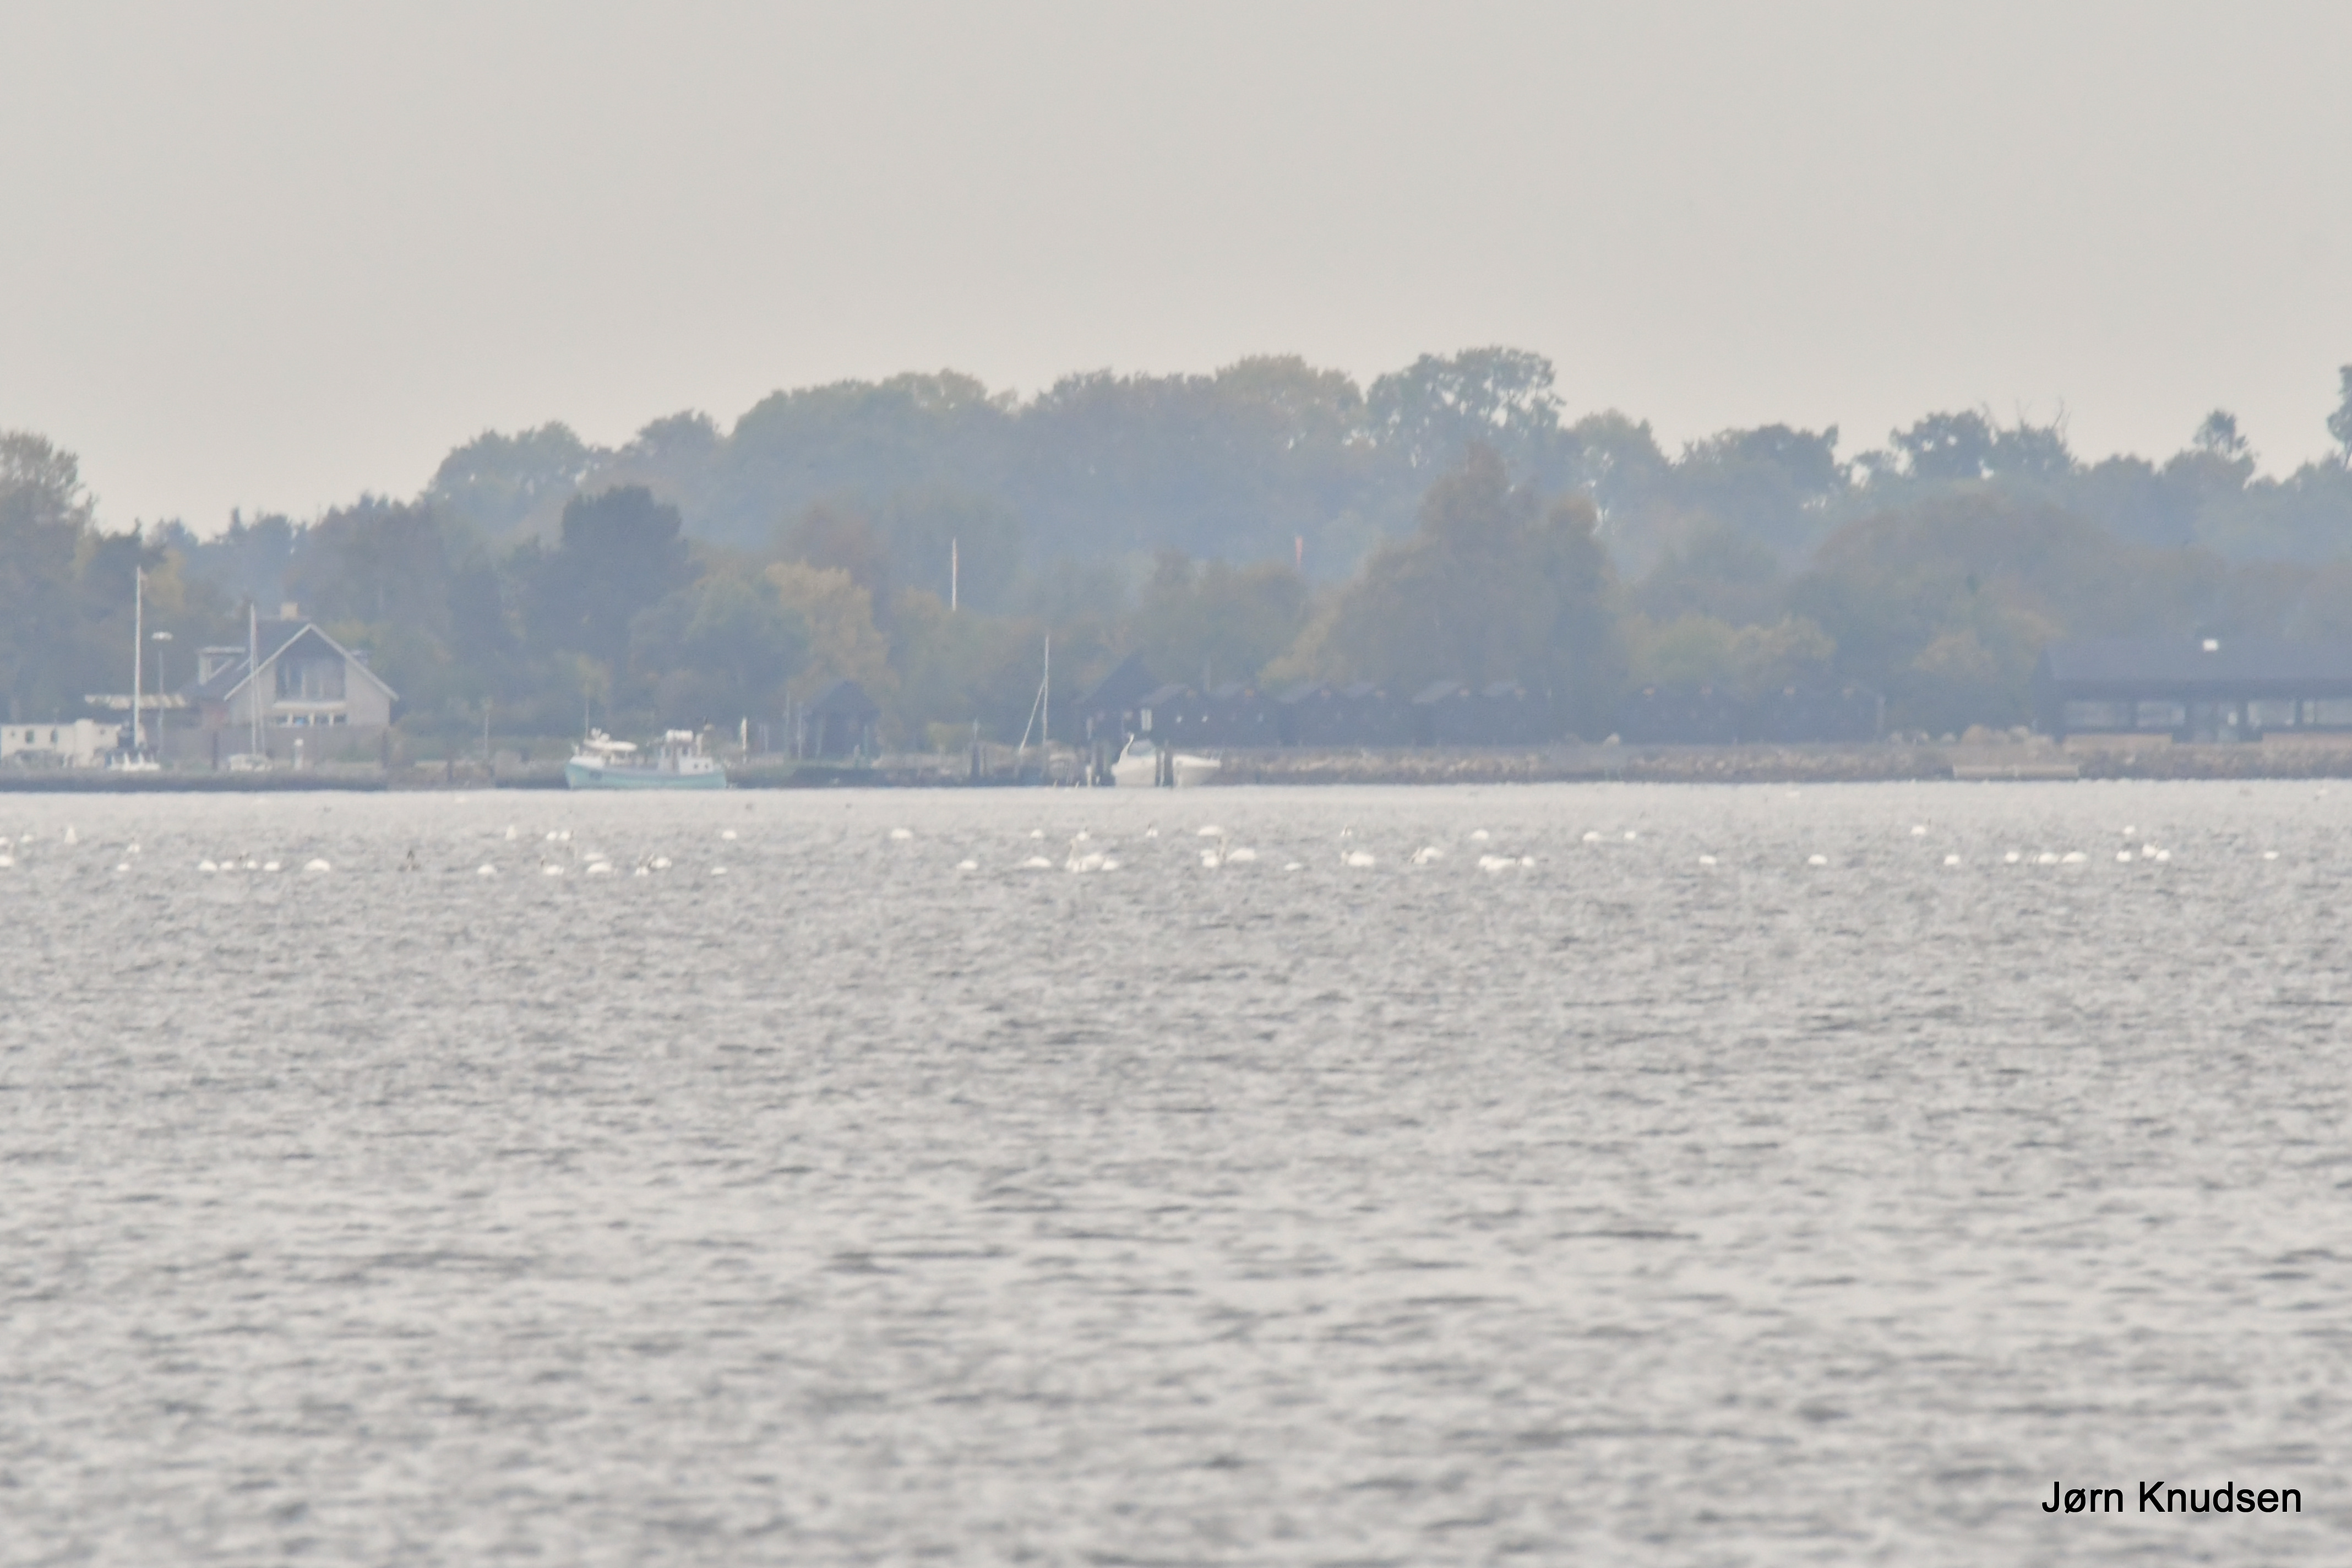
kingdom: Animalia
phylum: Chordata
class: Aves
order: Anseriformes
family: Anatidae
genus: Cygnus
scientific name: Cygnus olor
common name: Knopsvane
